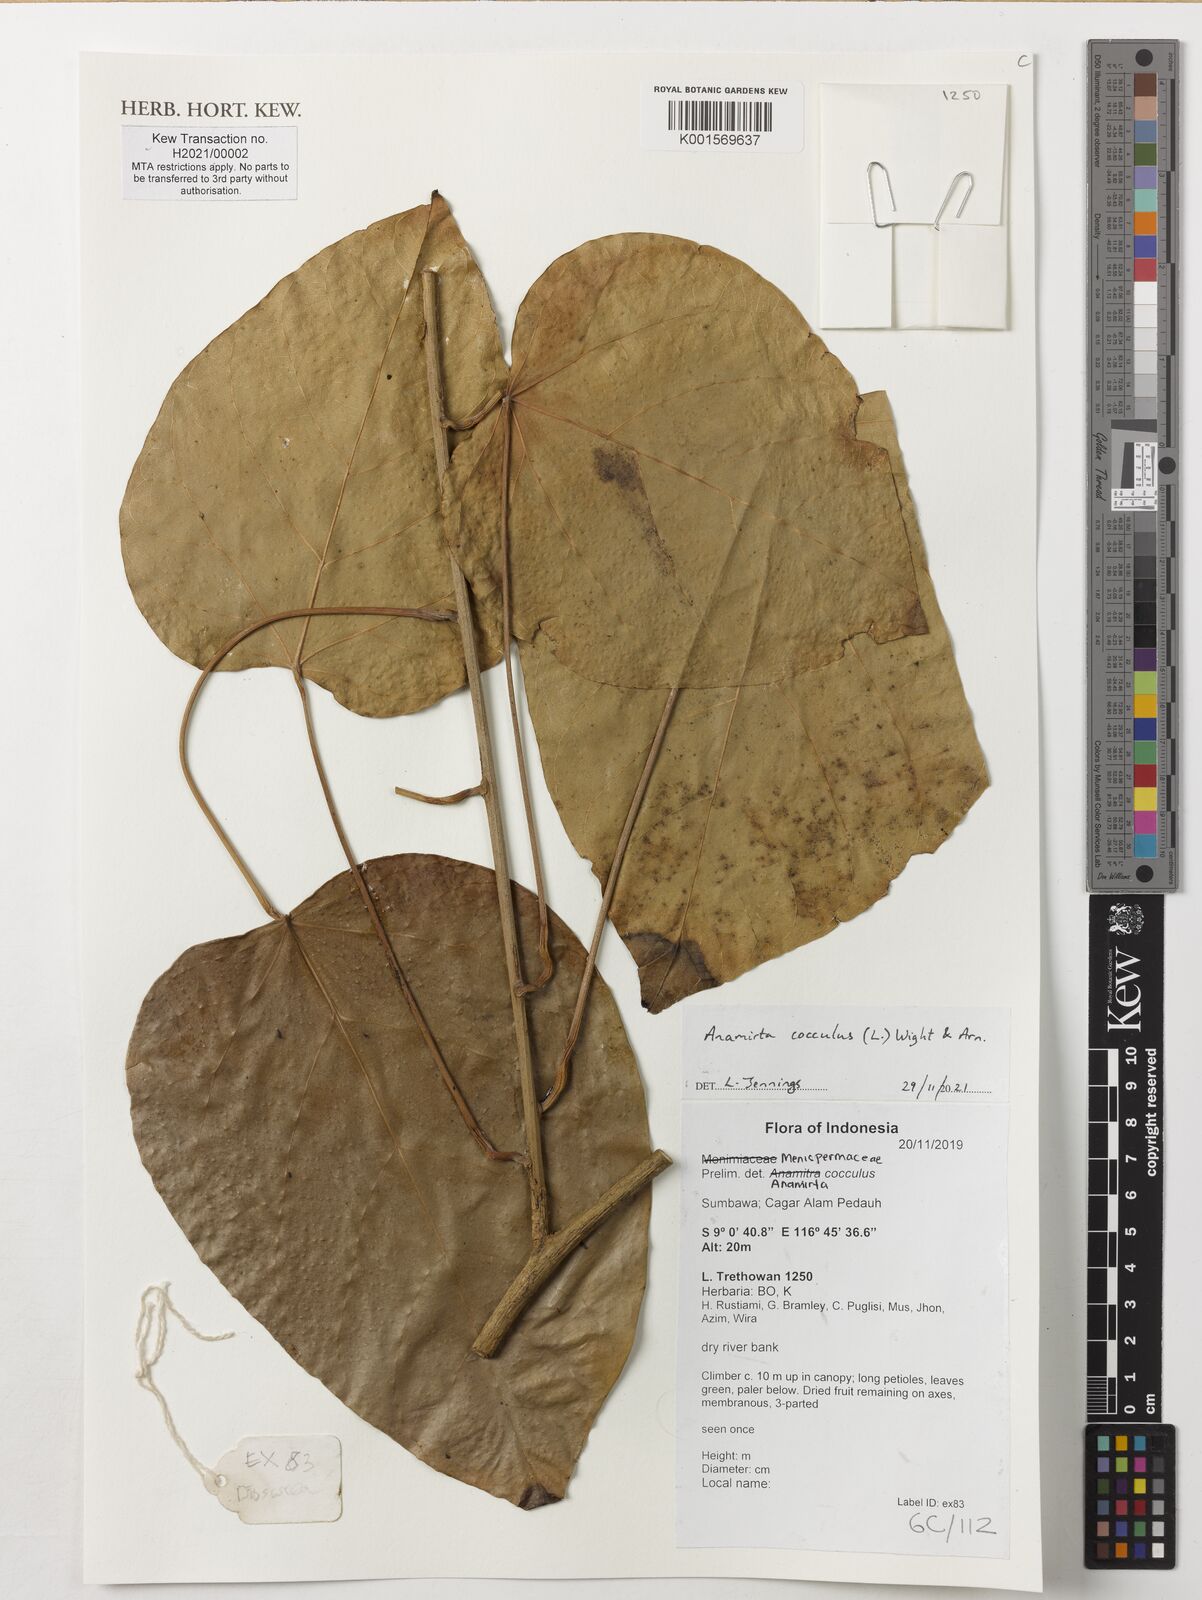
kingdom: Plantae
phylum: Tracheophyta
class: Magnoliopsida
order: Ranunculales
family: Menispermaceae
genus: Anamirta
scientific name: Anamirta cocculus
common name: Levantnut
